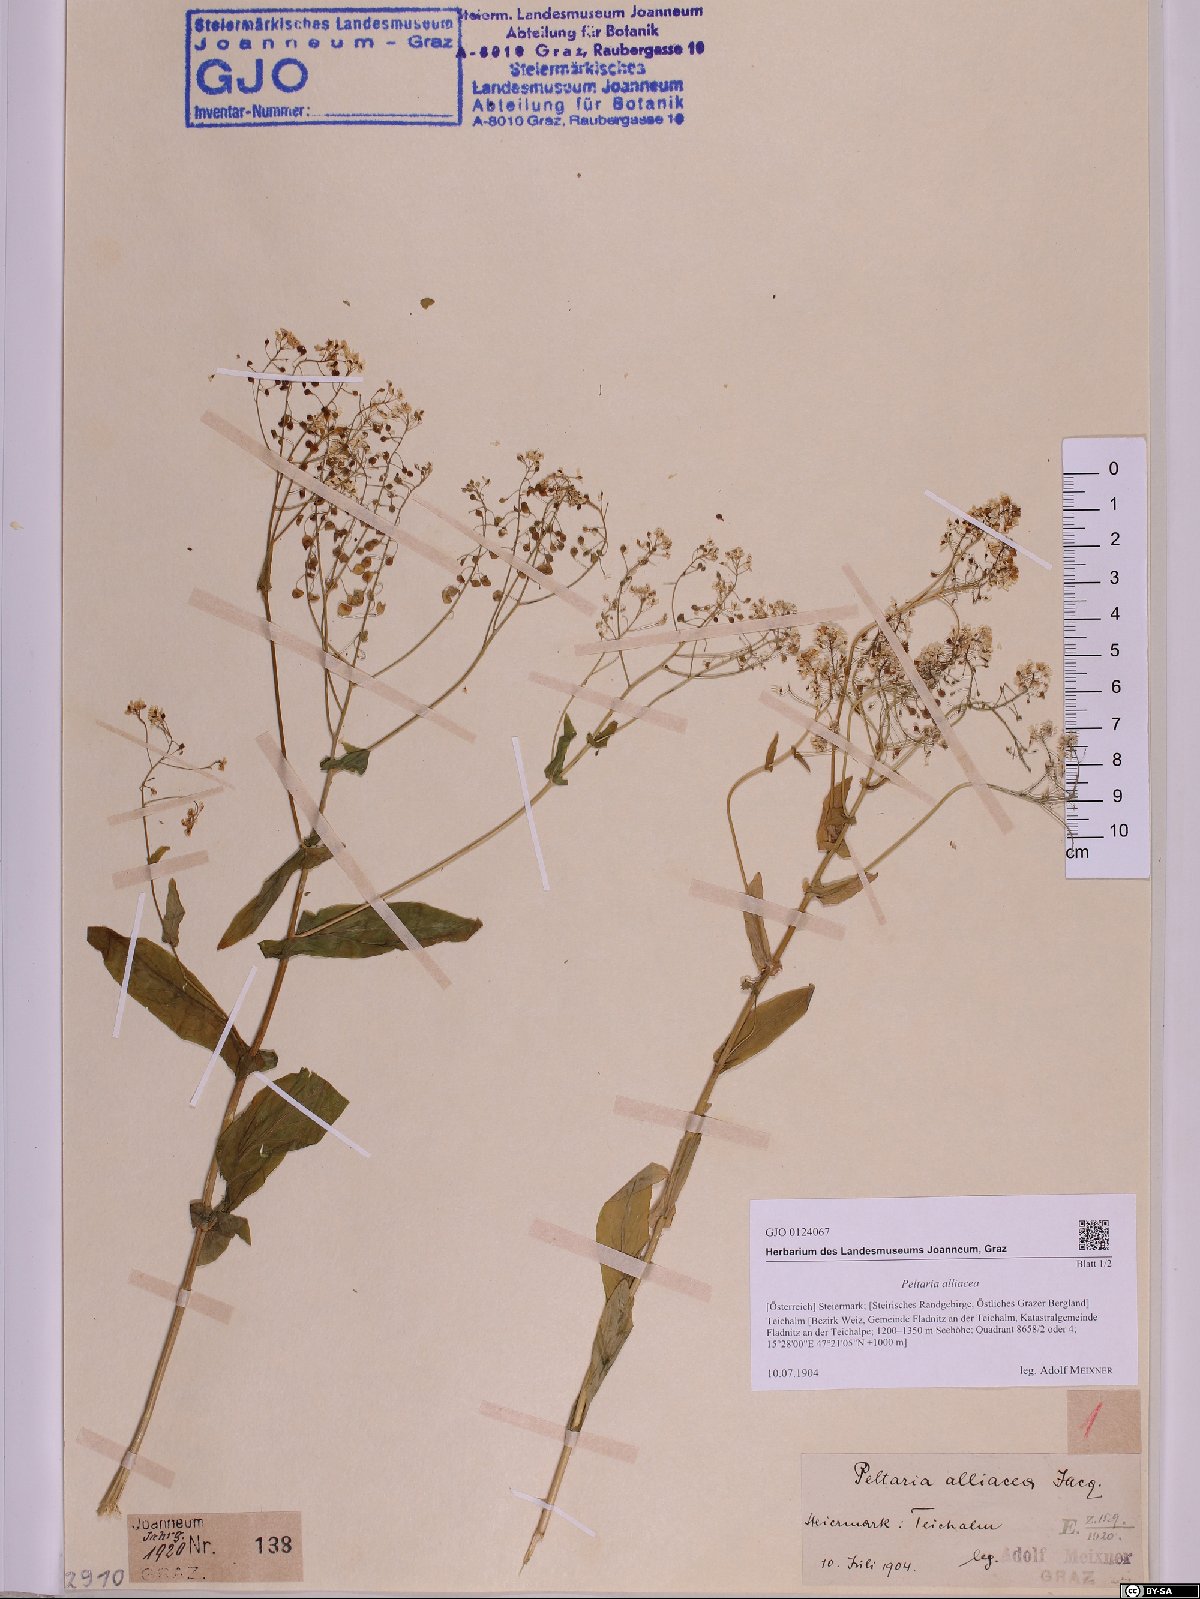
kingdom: Plantae
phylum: Tracheophyta
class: Magnoliopsida
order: Brassicales
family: Brassicaceae
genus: Peltaria
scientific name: Peltaria alliacea
